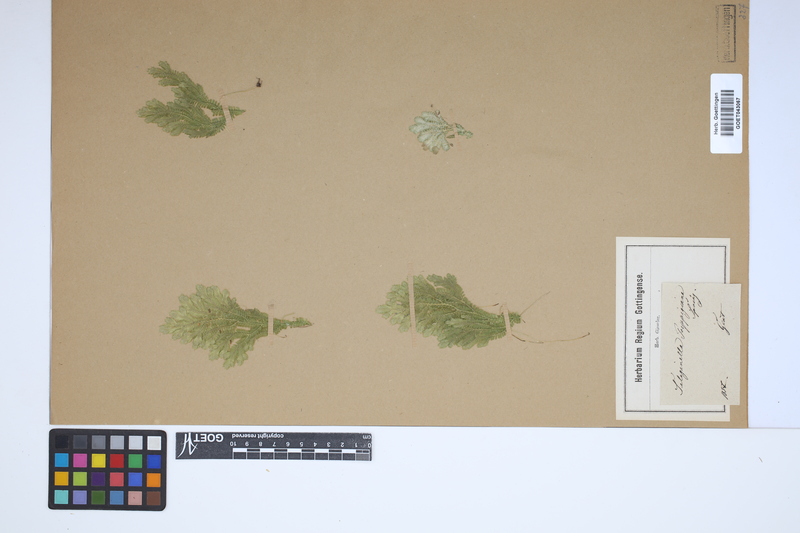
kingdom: Plantae
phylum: Tracheophyta
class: Lycopodiopsida
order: Selaginellales
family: Selaginellaceae
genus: Selaginella
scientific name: Selaginella sulcata
